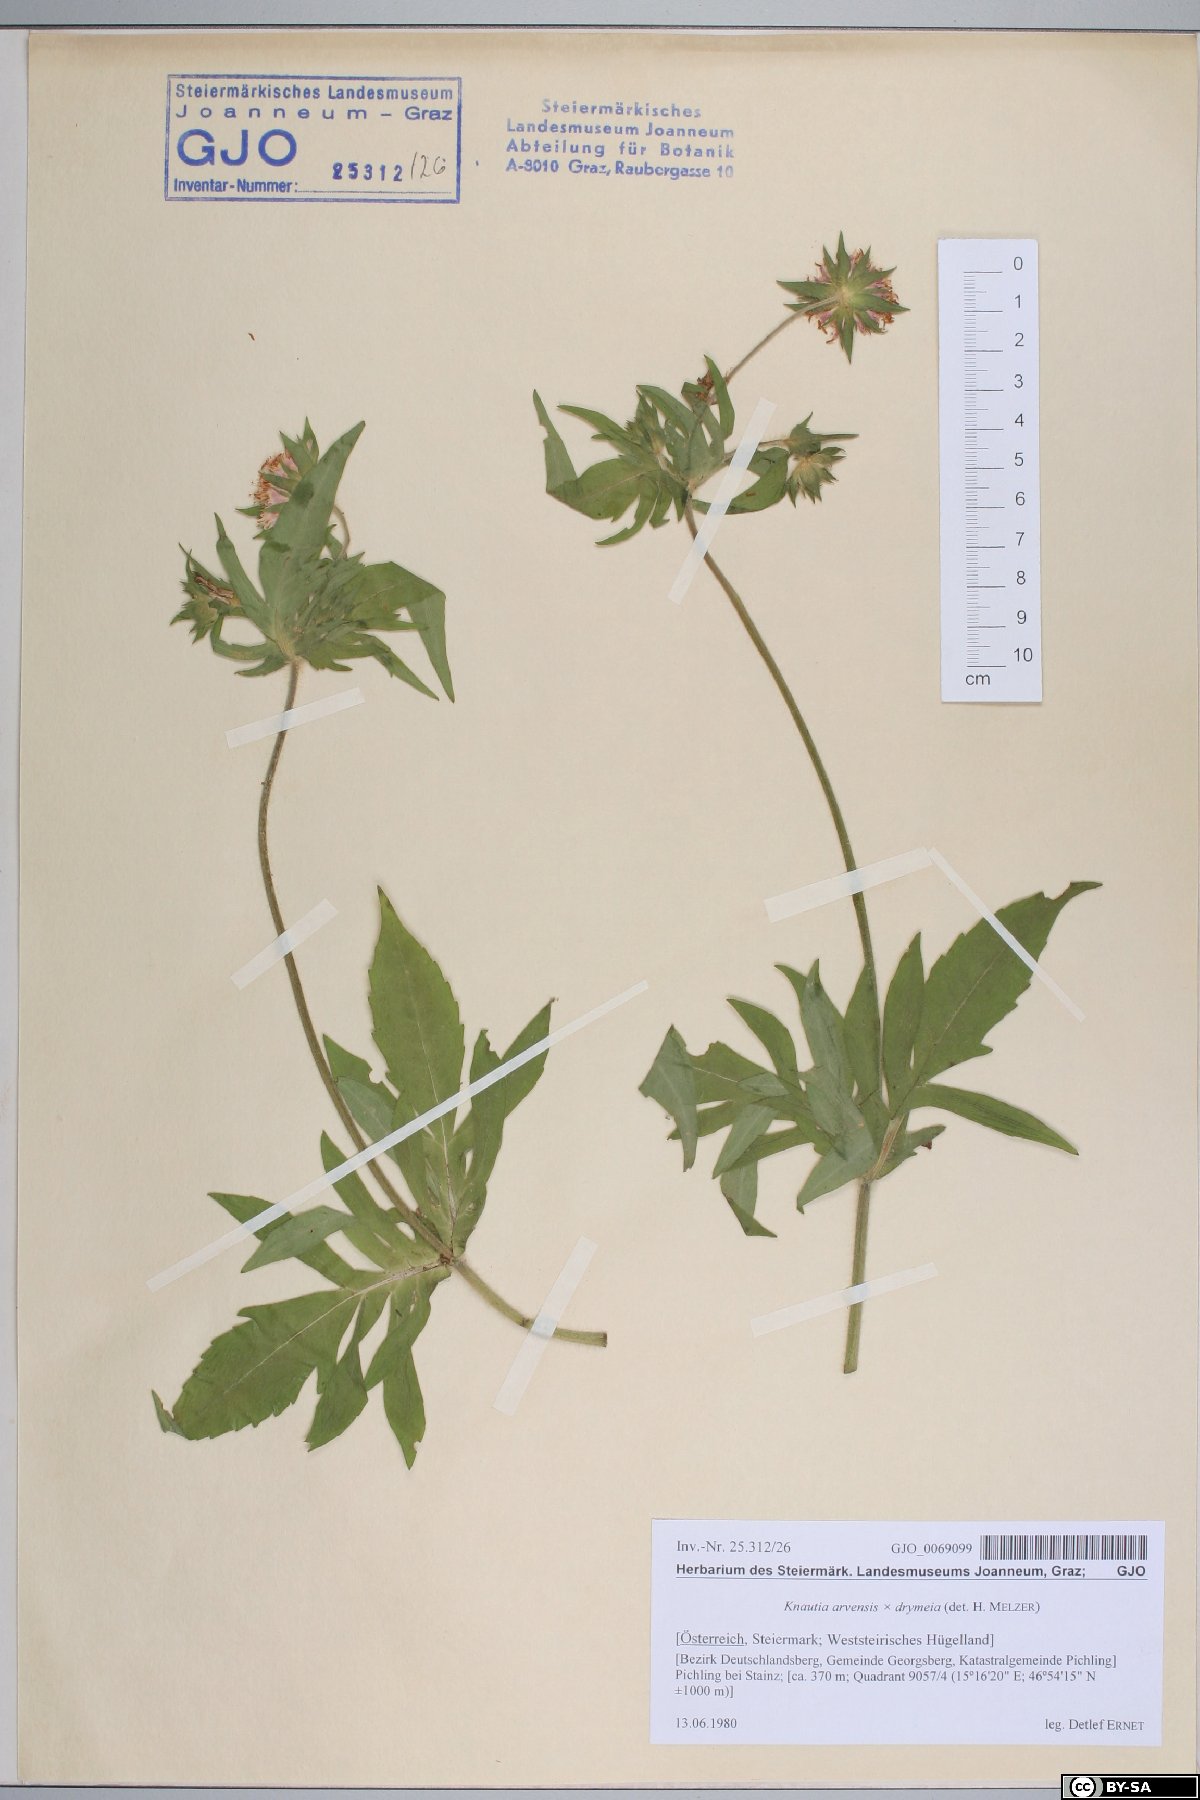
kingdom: Plantae
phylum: Tracheophyta
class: Magnoliopsida
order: Dipsacales
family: Dipsacaceae
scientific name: Dipsacaceae
